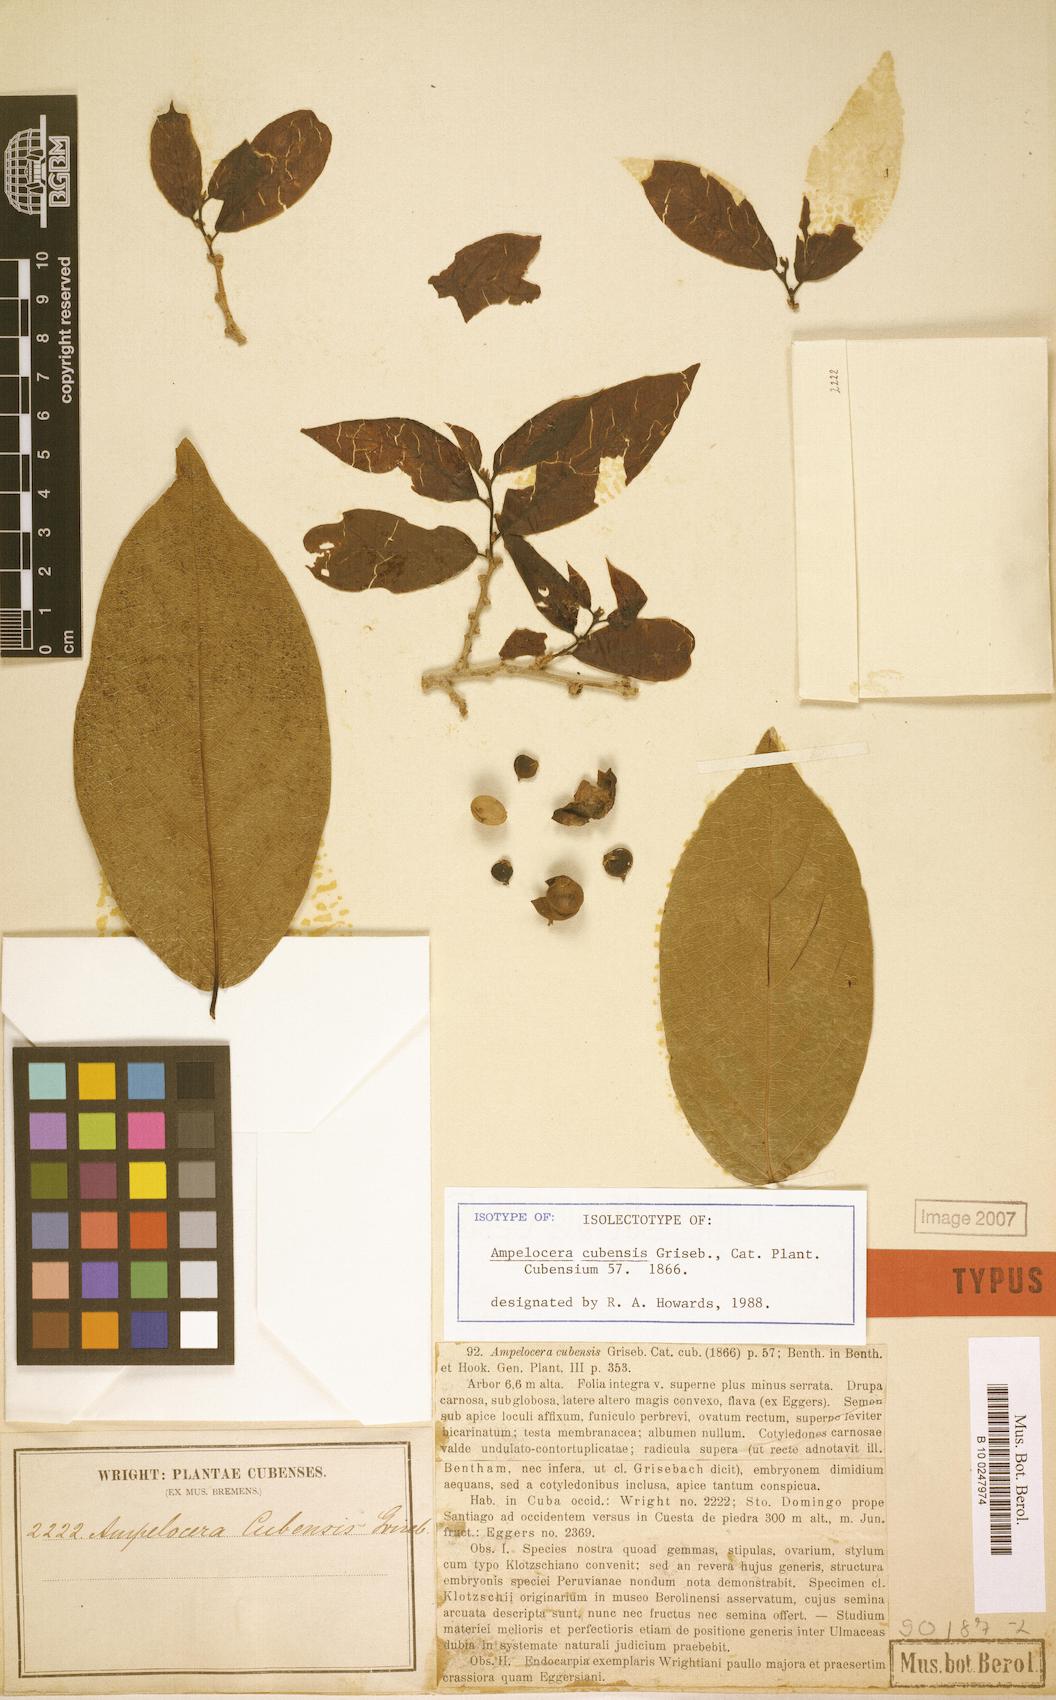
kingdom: Plantae
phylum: Tracheophyta
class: Magnoliopsida
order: Rosales
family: Cannabaceae
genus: Ampelocera
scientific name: Ampelocera cubensis
